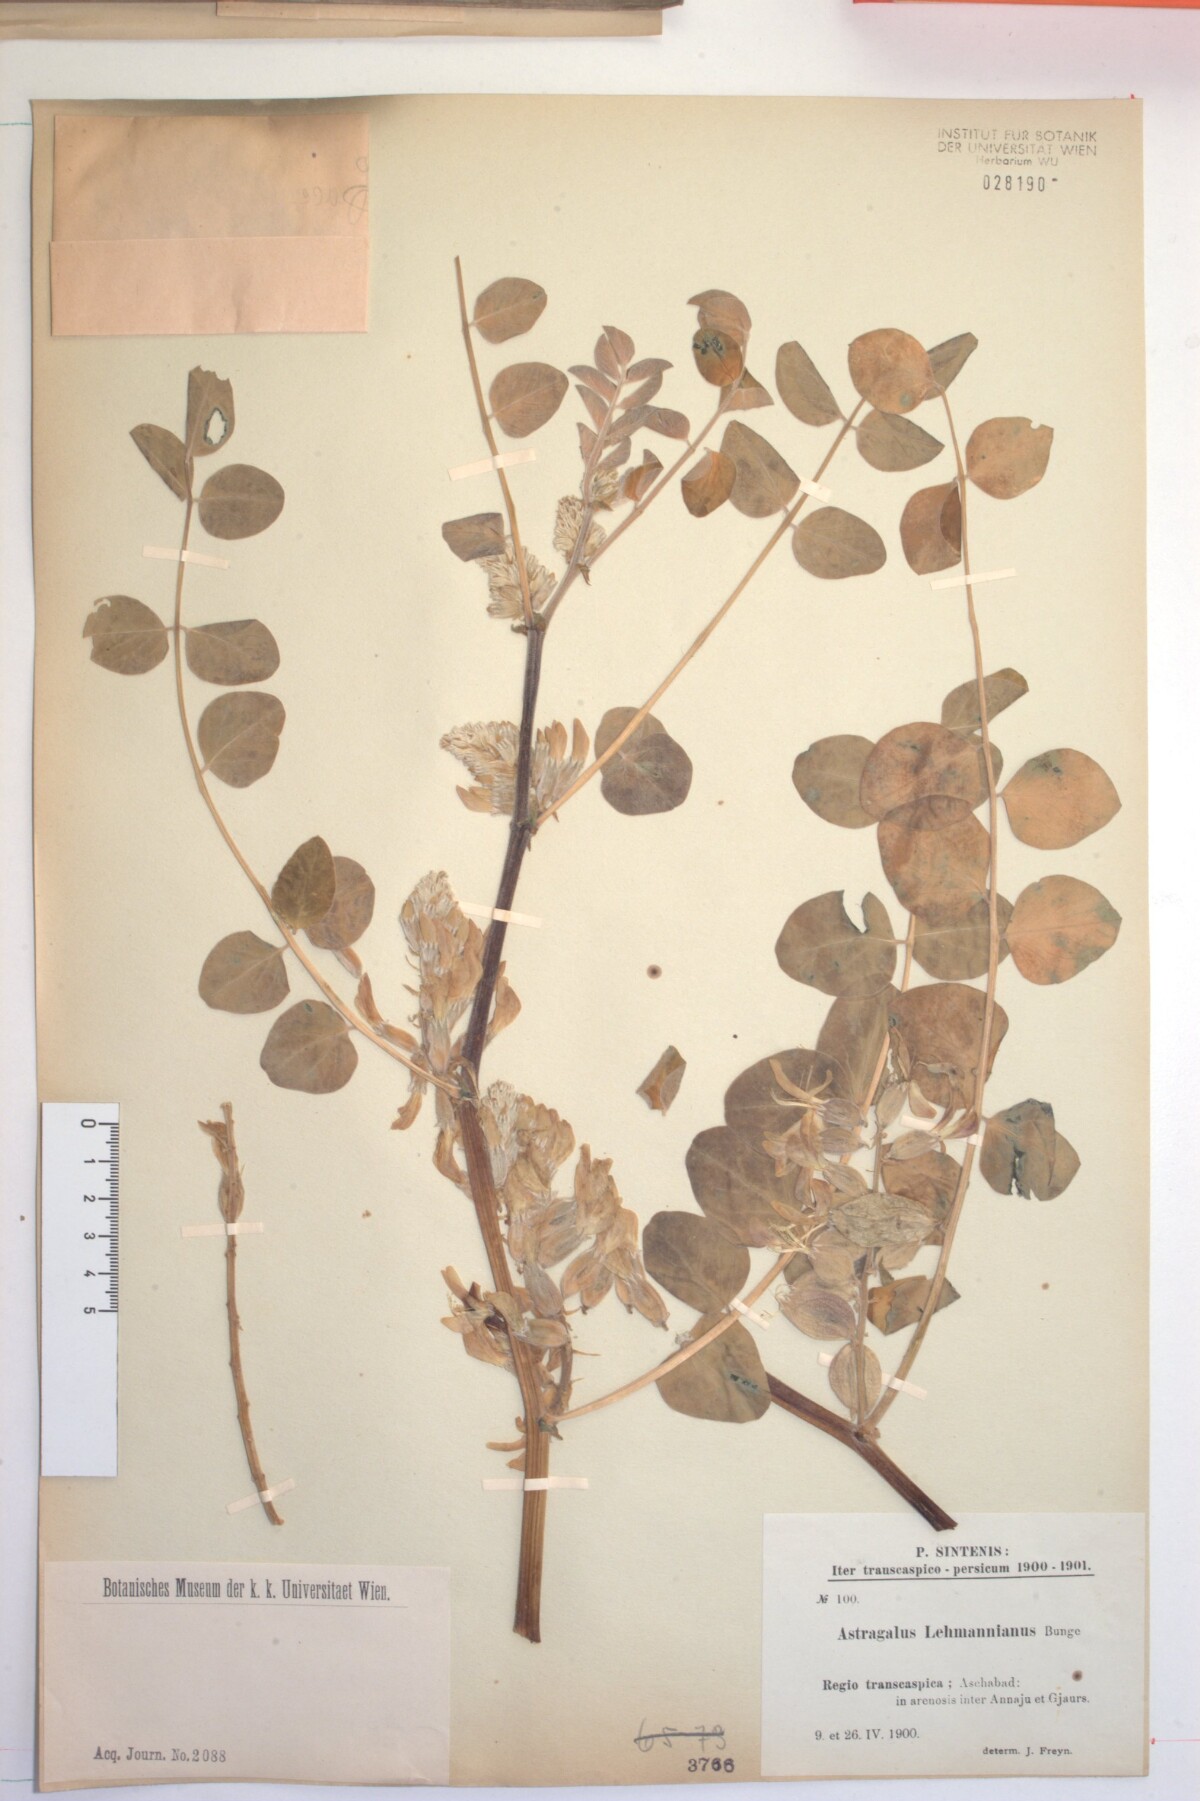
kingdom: Plantae
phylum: Tracheophyta
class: Magnoliopsida
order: Fabales
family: Fabaceae
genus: Astragalus
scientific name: Astragalus lehmannianus
